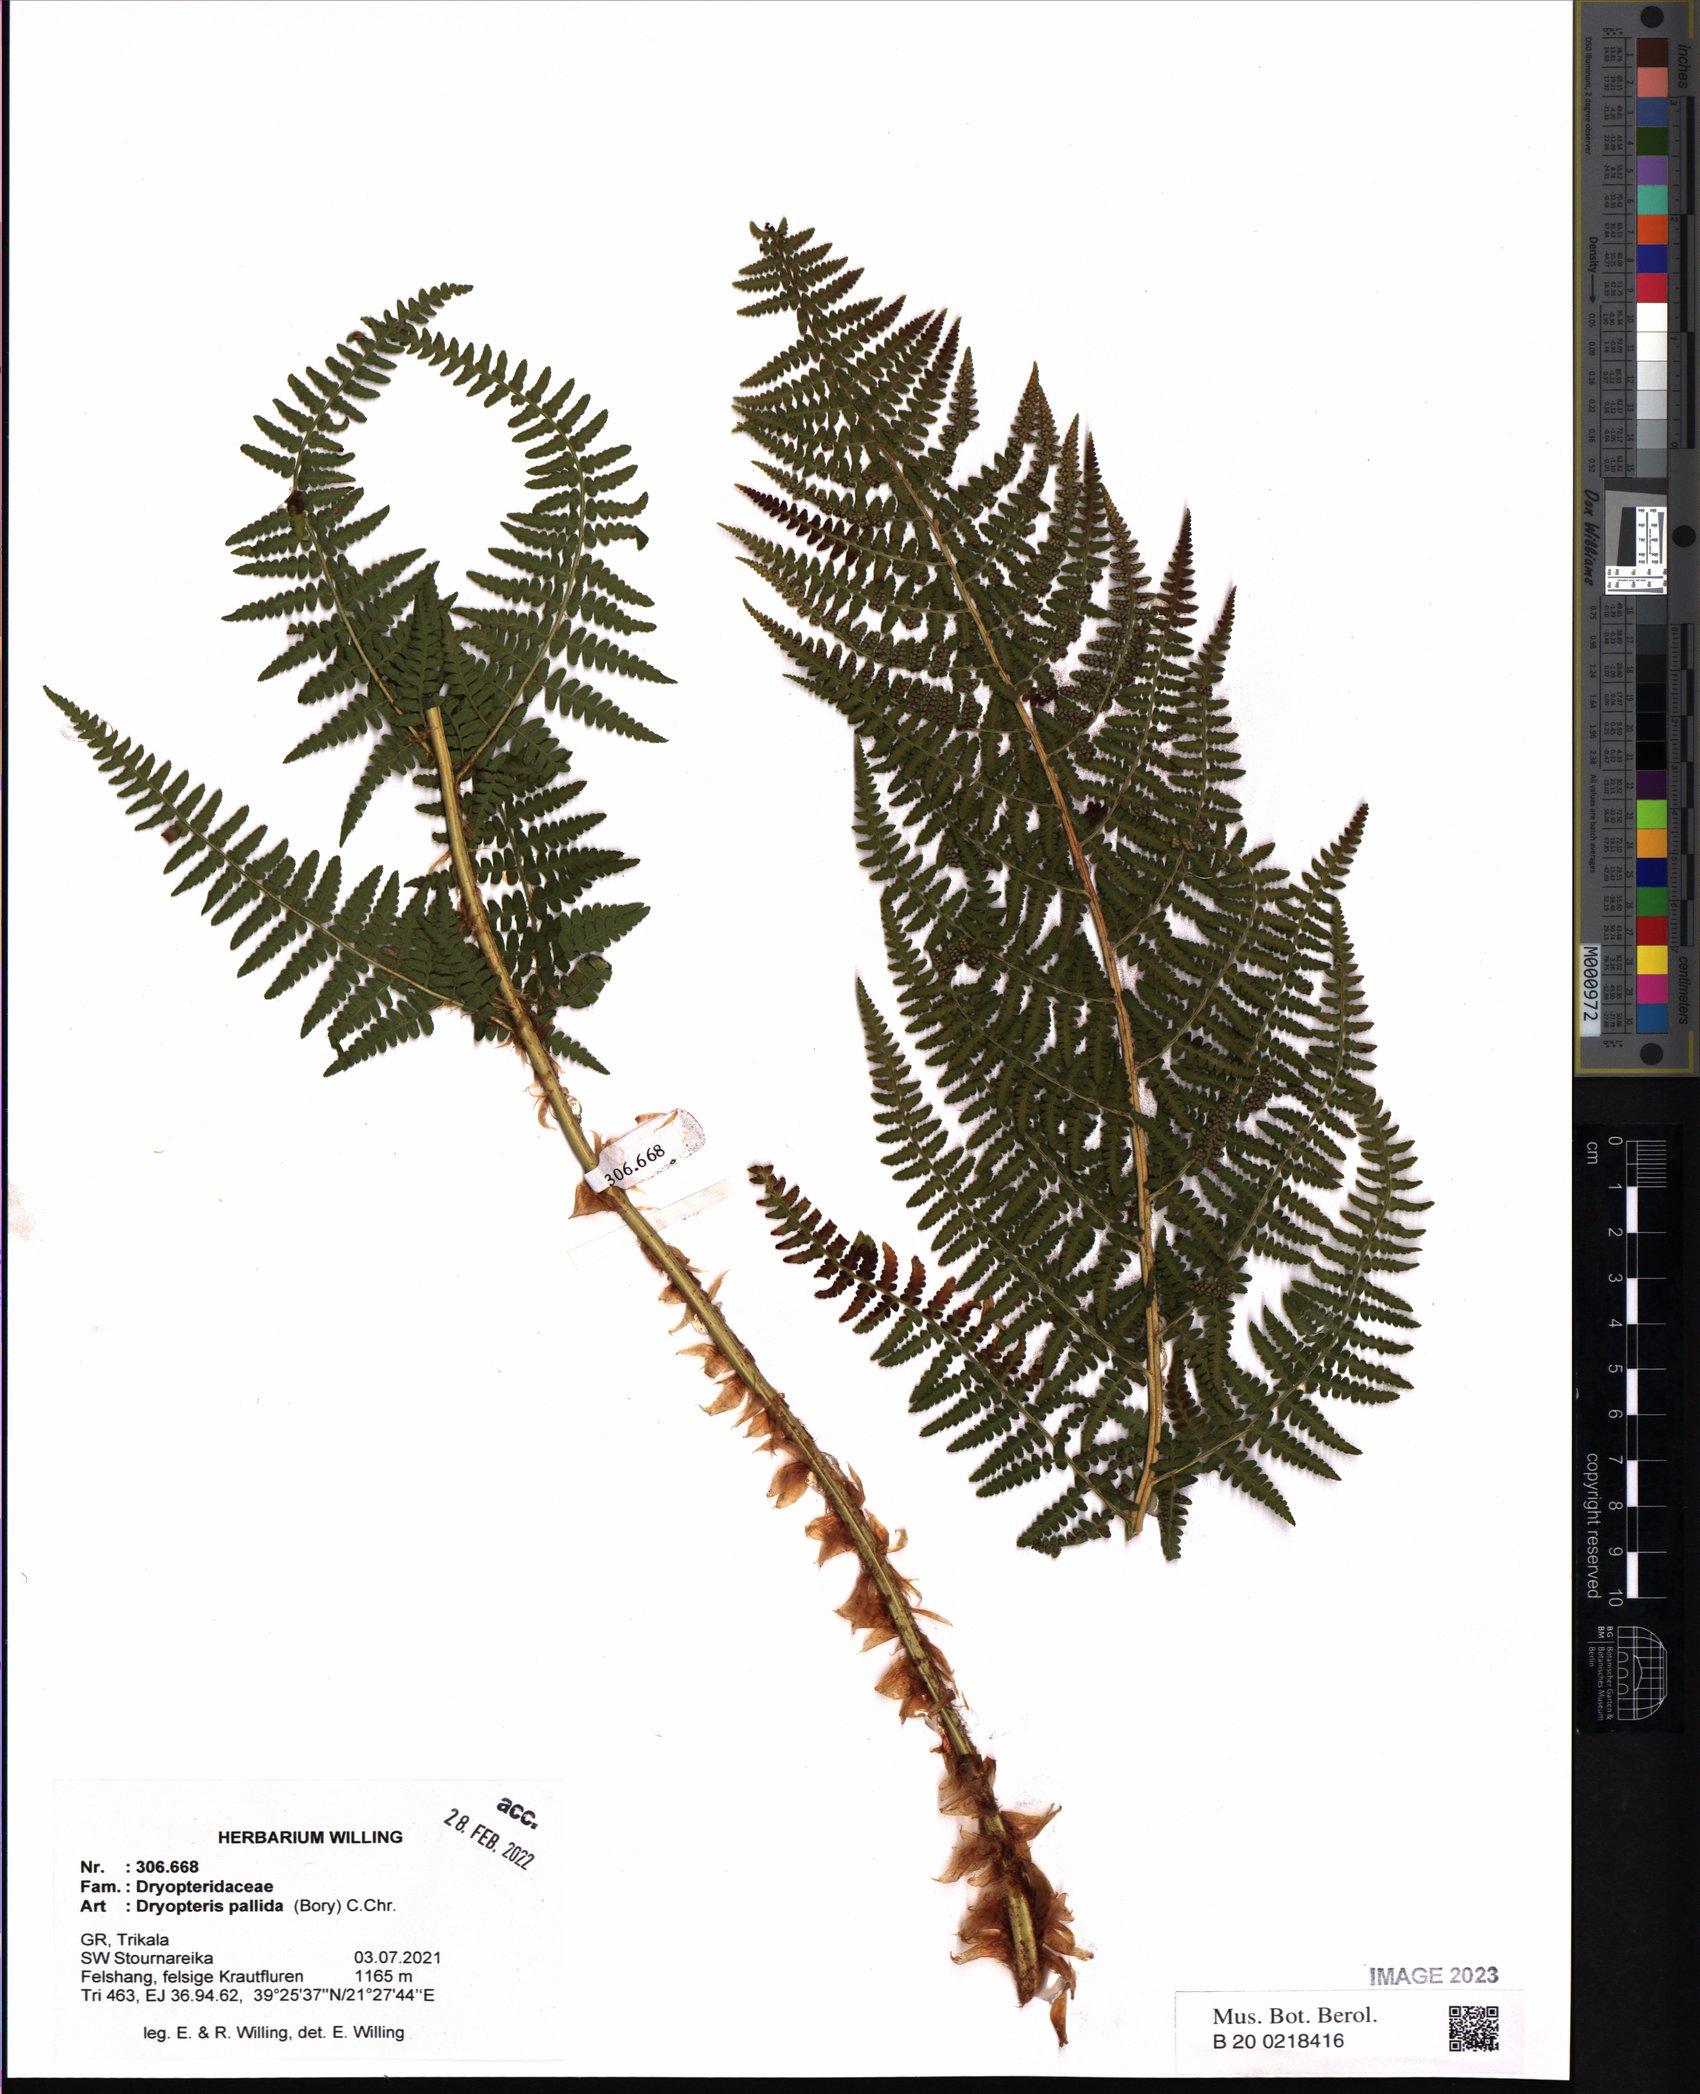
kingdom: Plantae
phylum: Tracheophyta
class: Polypodiopsida
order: Polypodiales
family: Dryopteridaceae
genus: Dryopteris
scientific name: Dryopteris pallida
